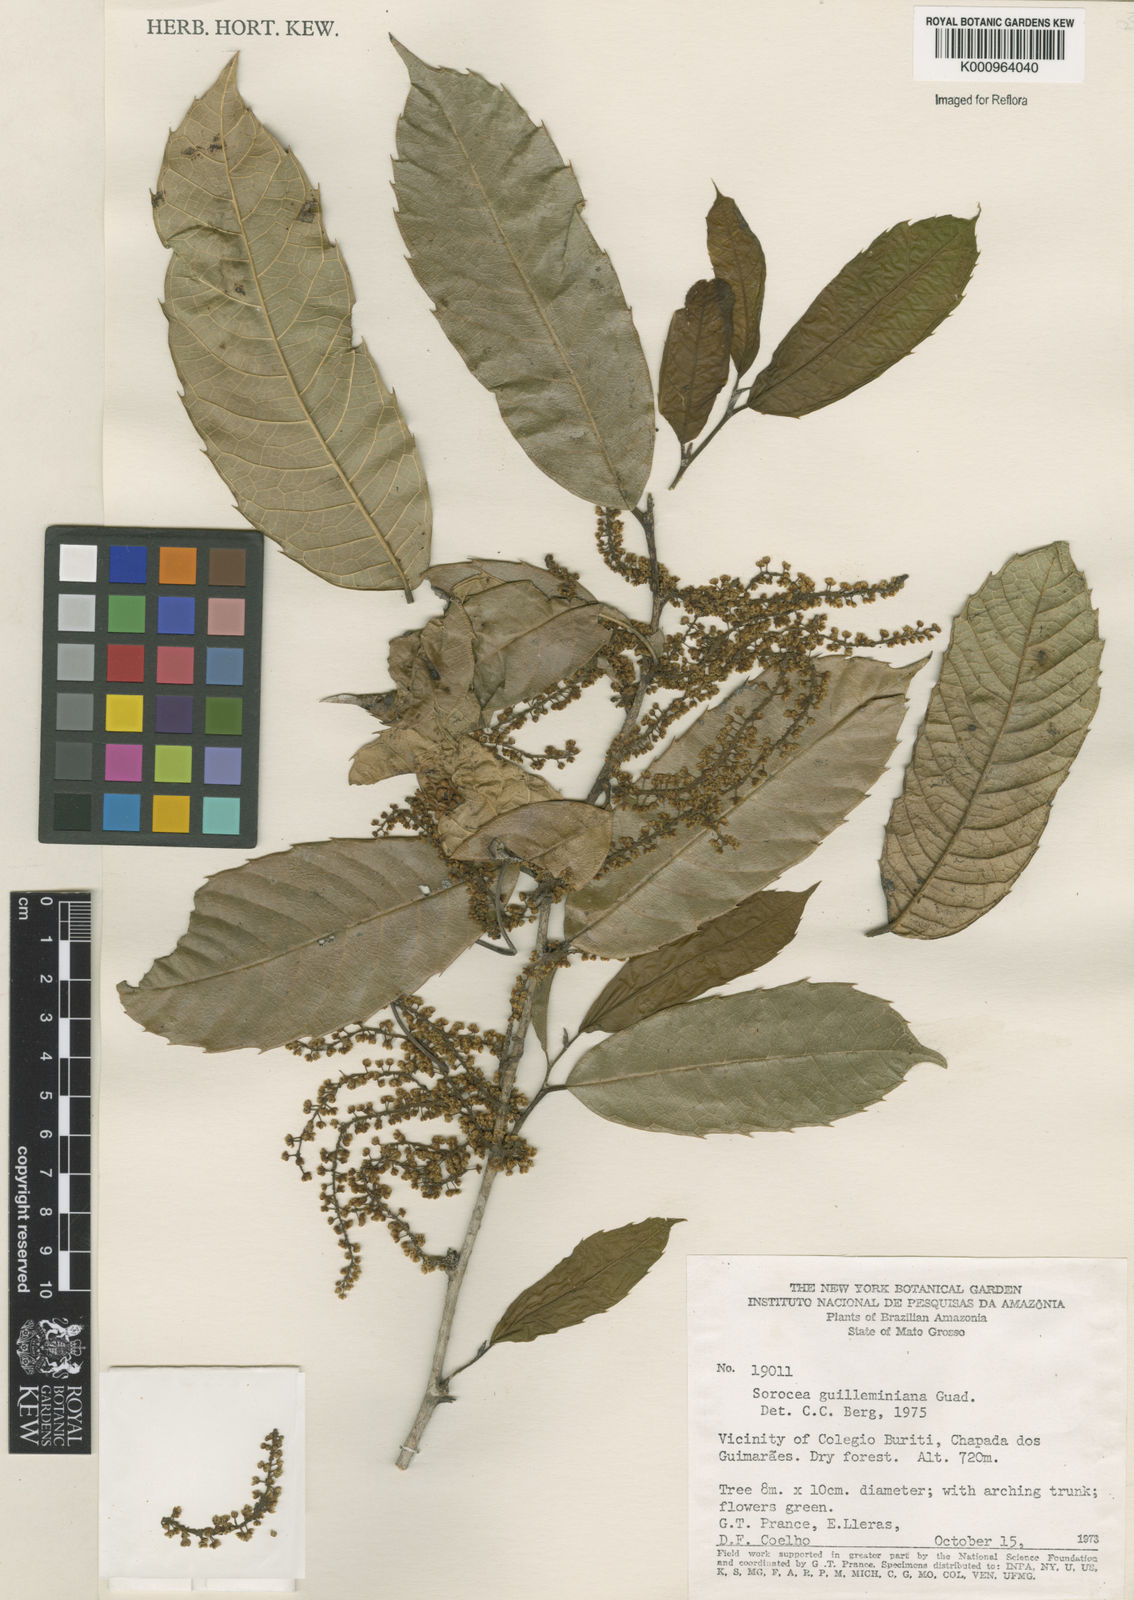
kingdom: Plantae
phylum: Tracheophyta
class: Magnoliopsida
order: Rosales
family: Moraceae
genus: Sorocea
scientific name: Sorocea guilleminiana
